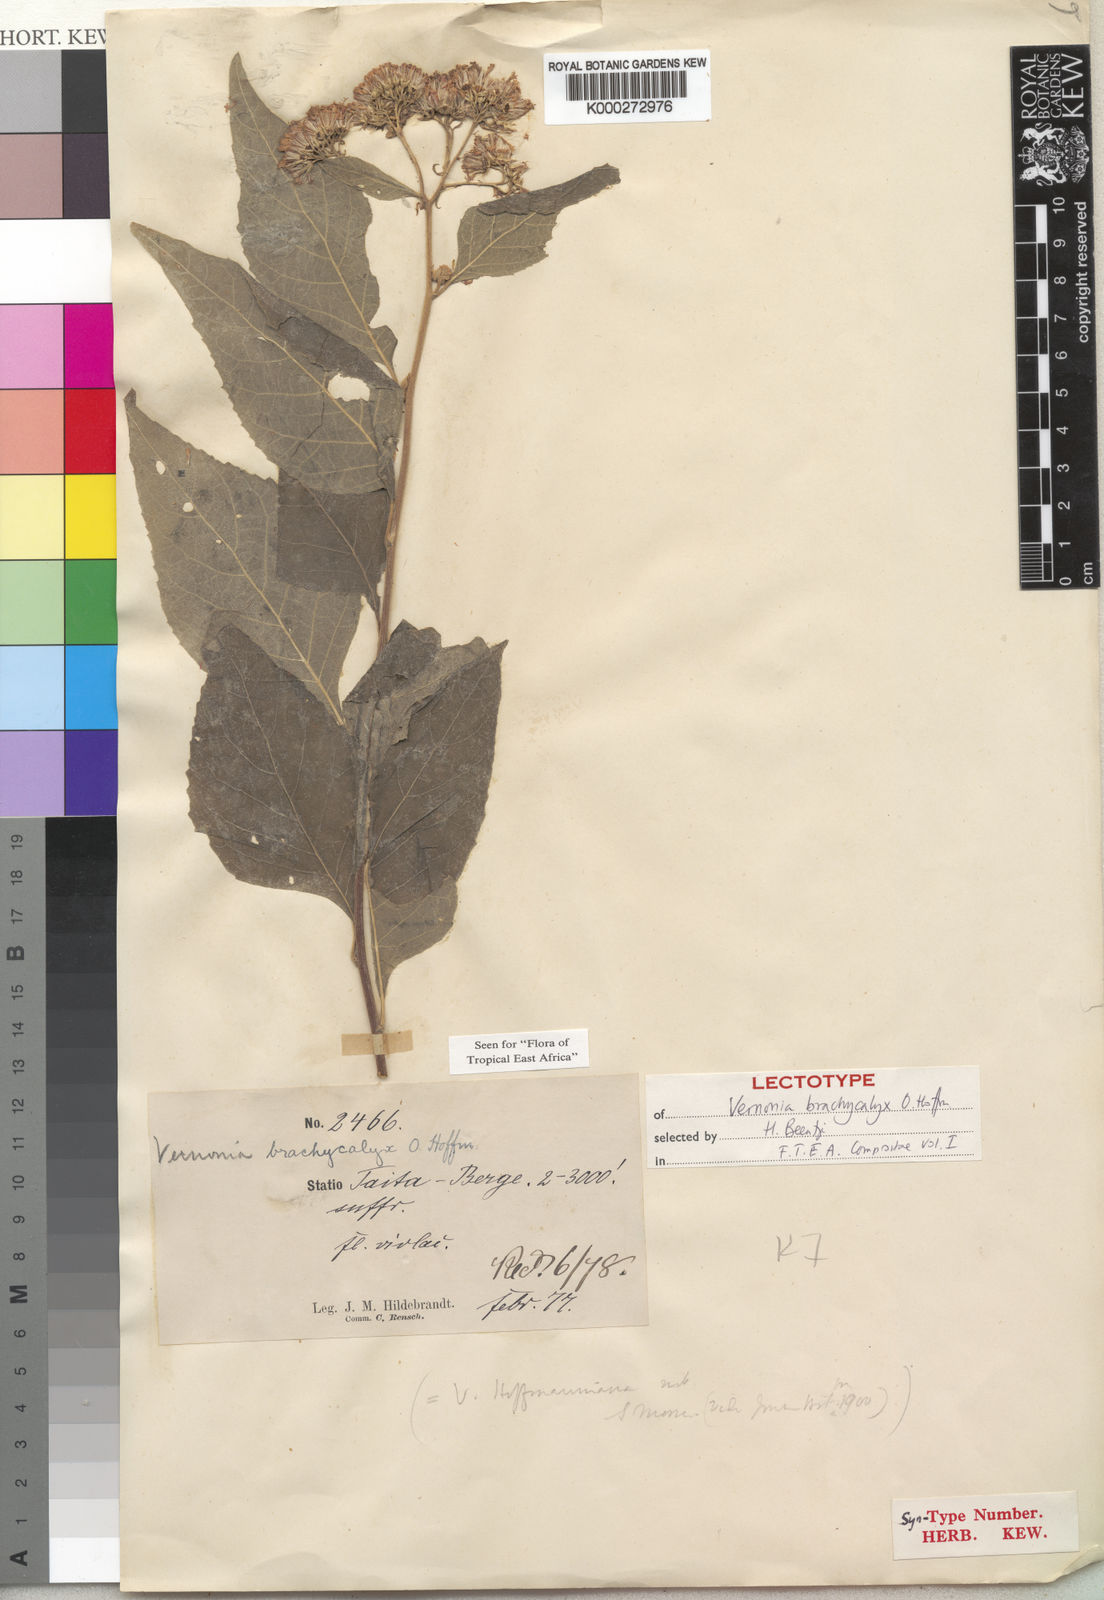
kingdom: Plantae
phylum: Tracheophyta
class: Magnoliopsida
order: Asterales
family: Asteraceae
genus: Hoffmannanthus
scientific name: Hoffmannanthus abbotianus
